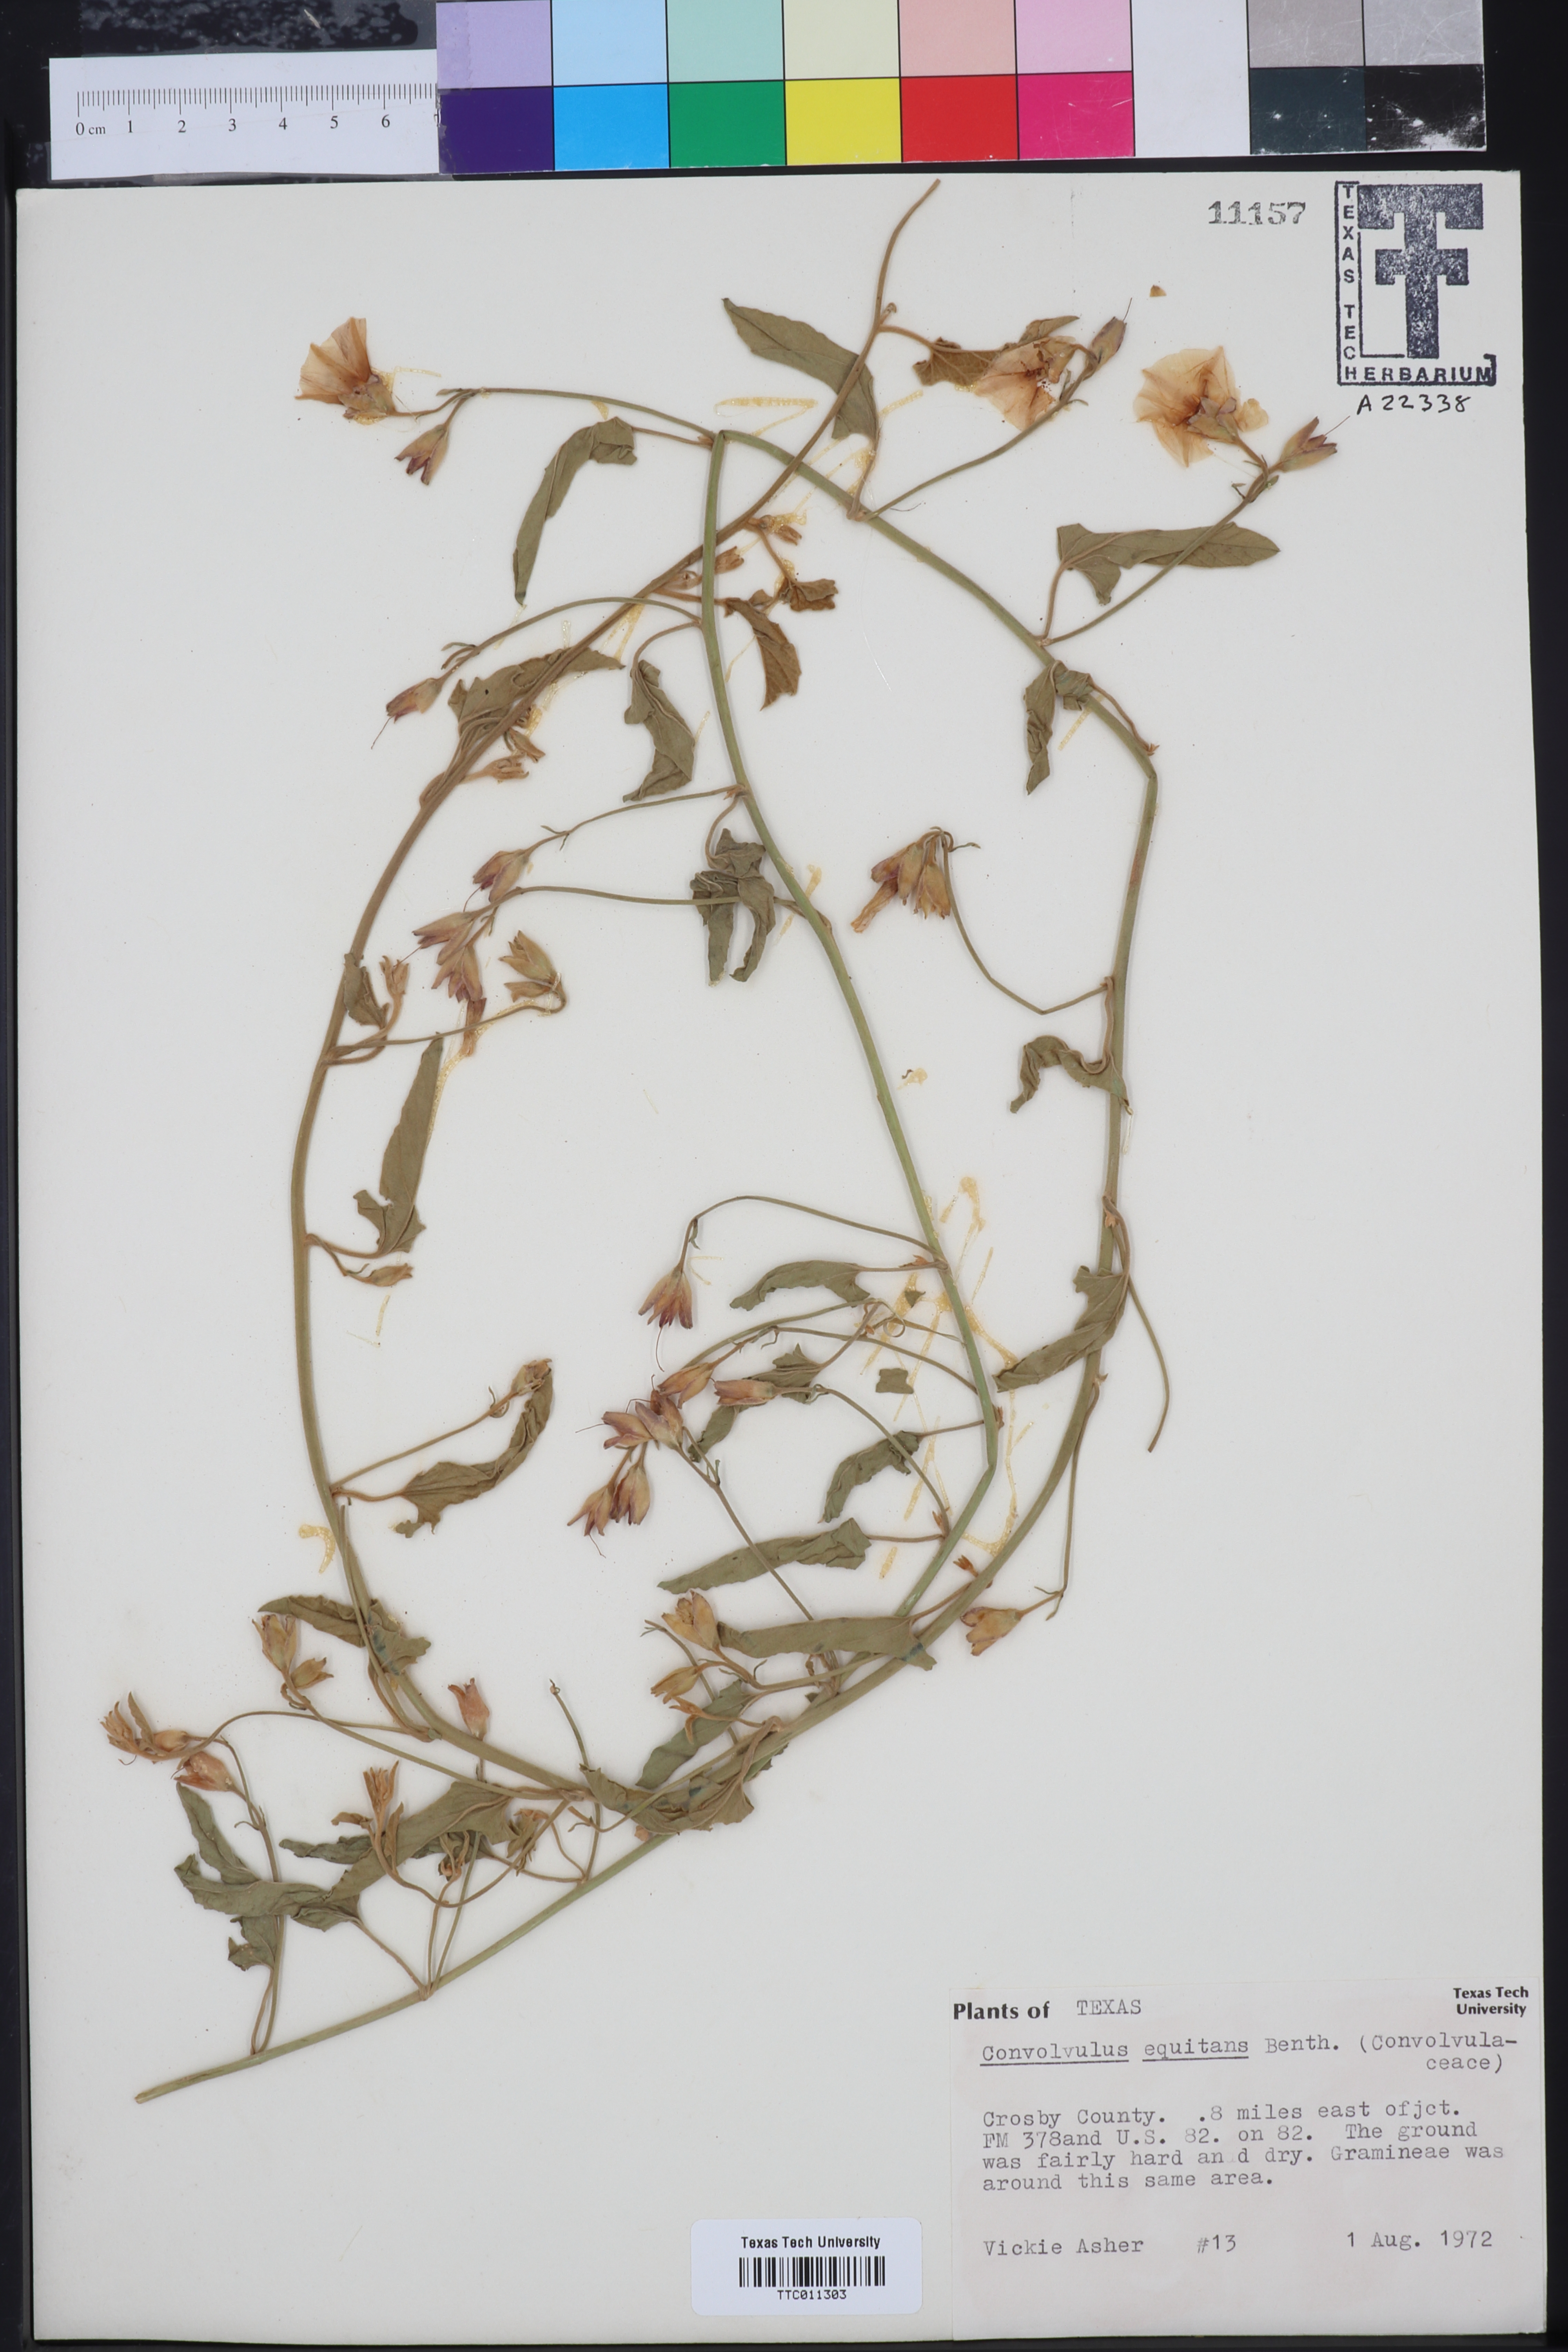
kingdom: Plantae
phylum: Tracheophyta
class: Magnoliopsida
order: Solanales
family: Convolvulaceae
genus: Convolvulus
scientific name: Convolvulus equitans
